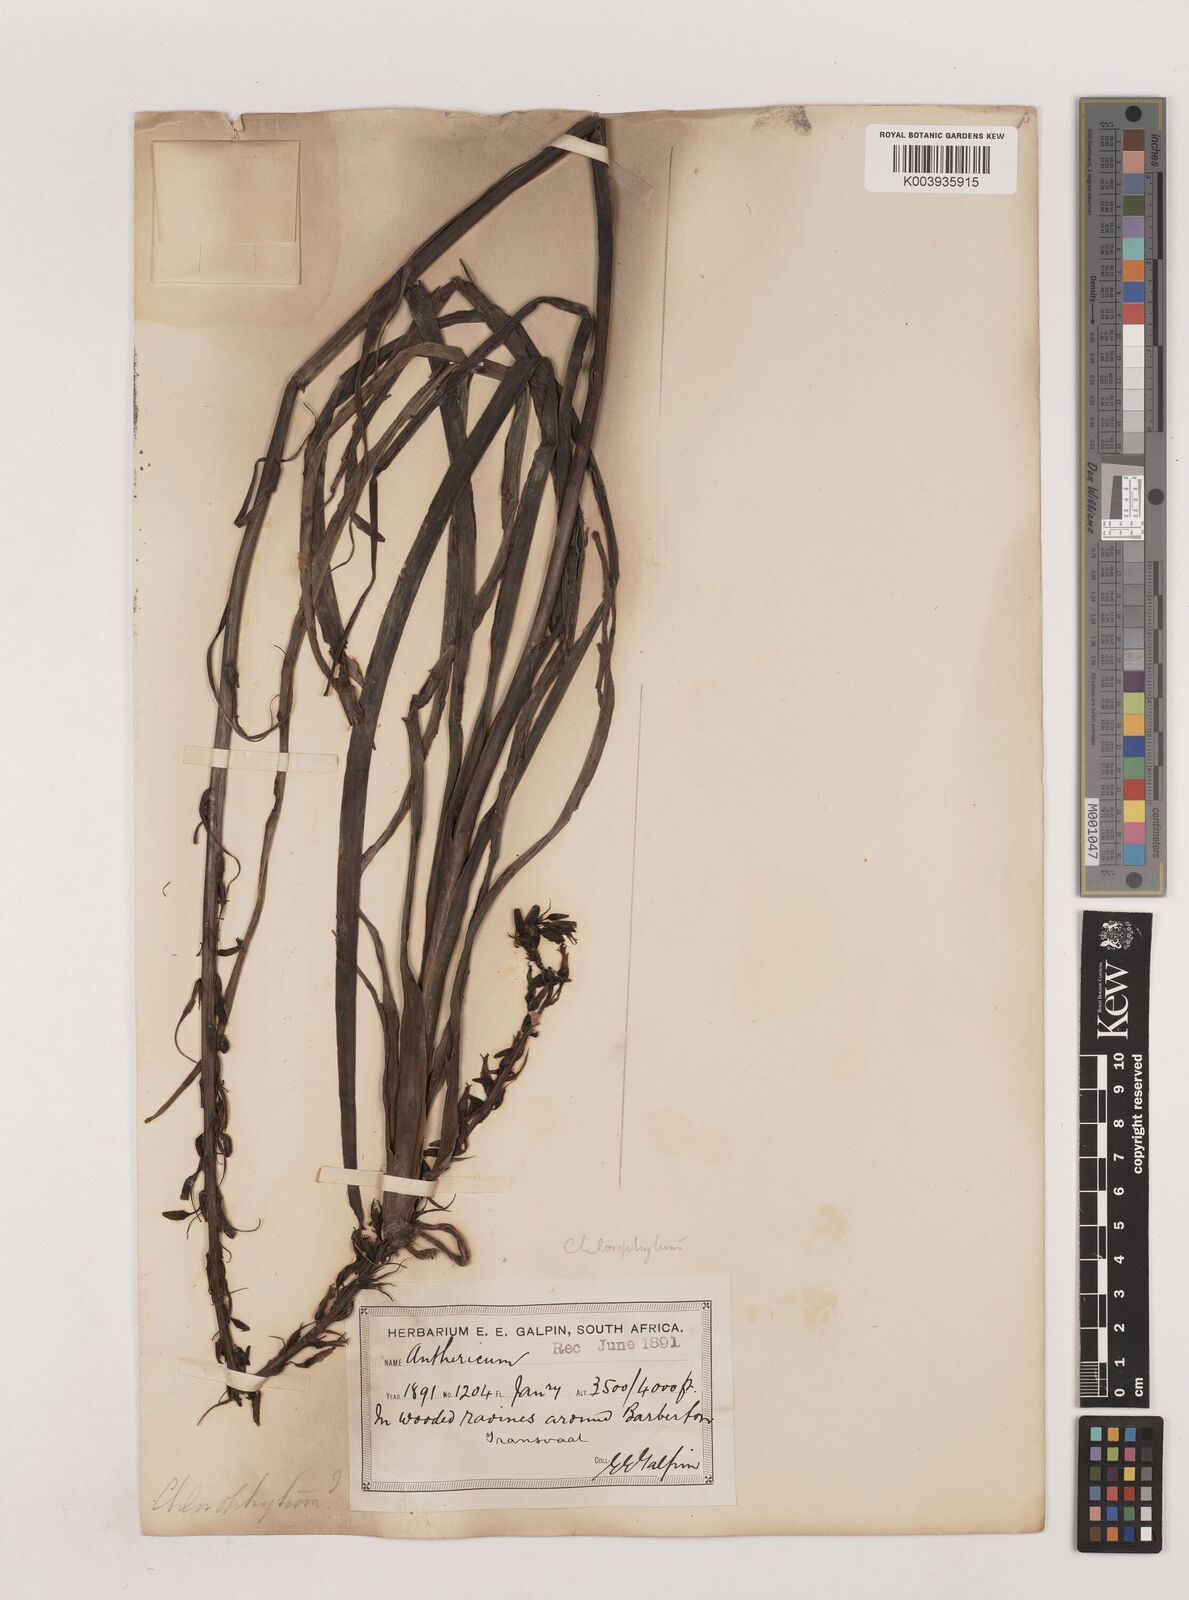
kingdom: Plantae
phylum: Tracheophyta
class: Liliopsida
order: Asparagales
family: Asparagaceae
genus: Chlorophytum
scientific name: Chlorophytum bowkeri
